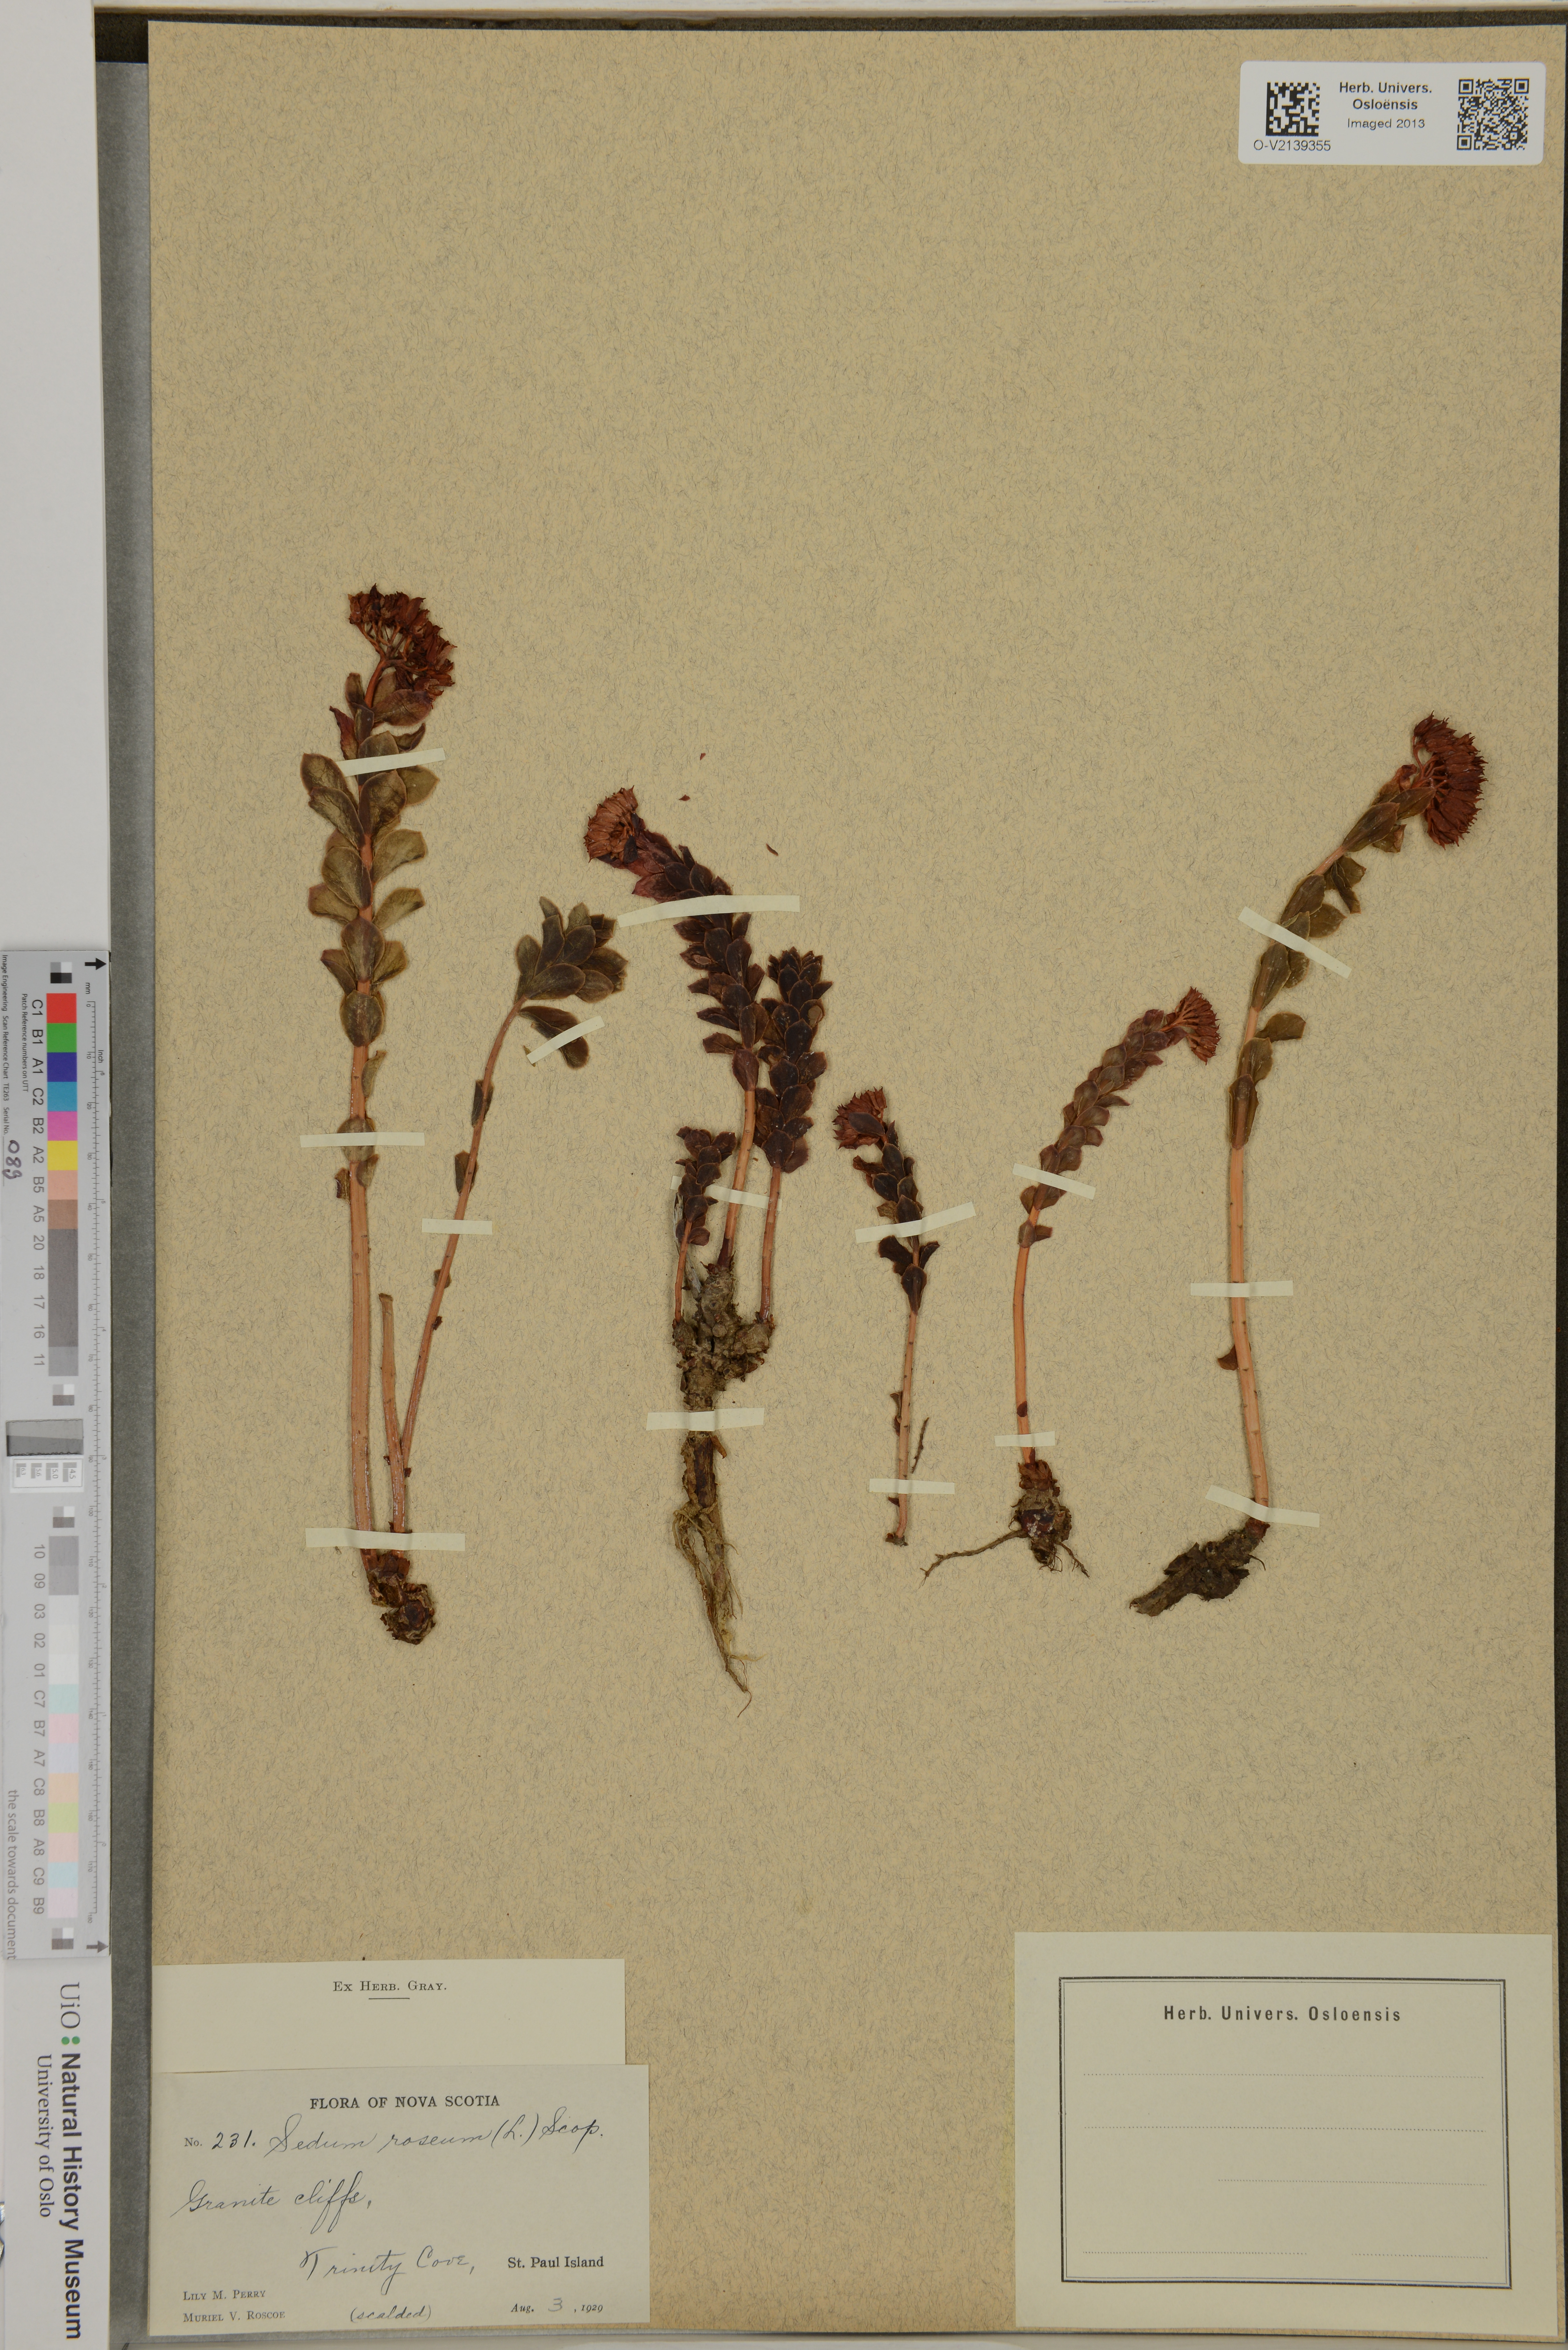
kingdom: Plantae
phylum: Tracheophyta
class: Magnoliopsida
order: Saxifragales
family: Crassulaceae
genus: Phedimus
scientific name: Phedimus stevenianus
